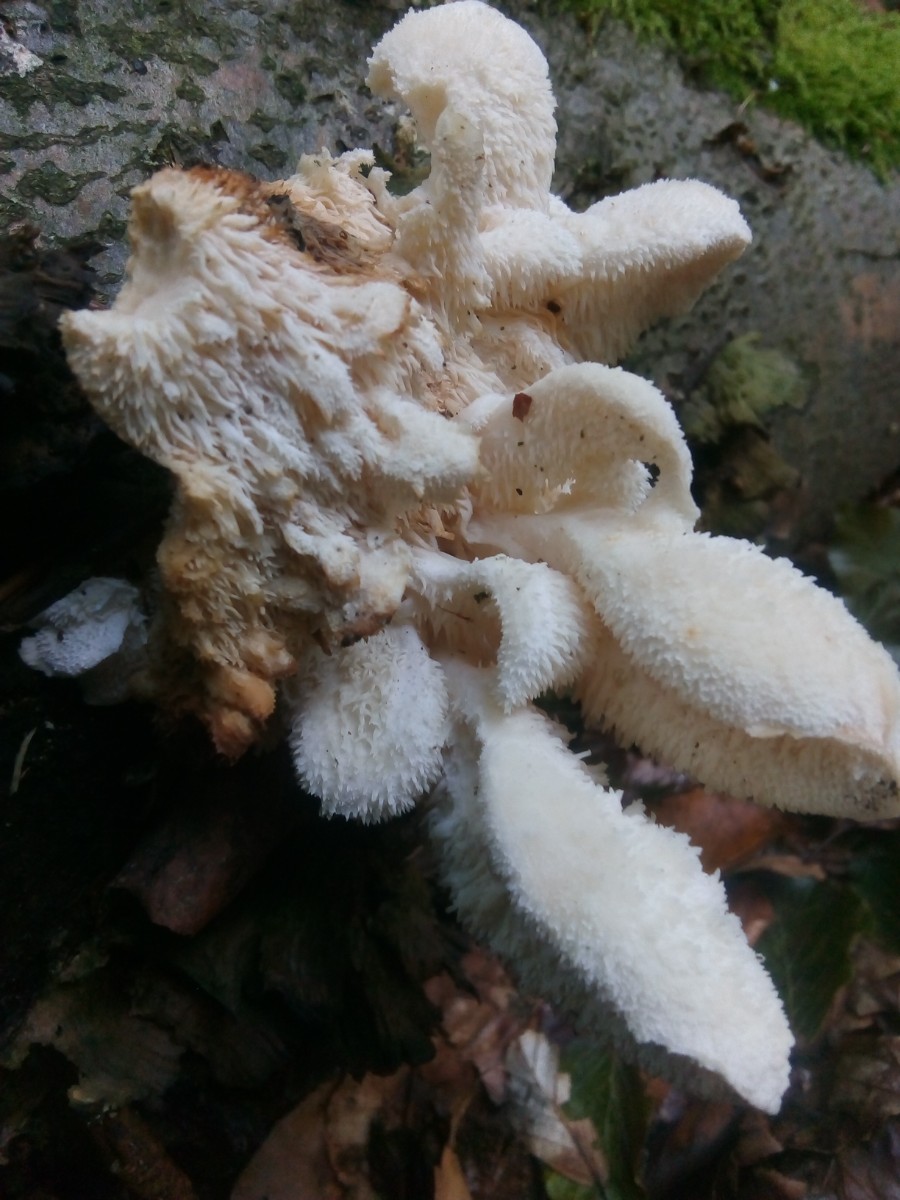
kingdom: Fungi
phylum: Basidiomycota
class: Agaricomycetes
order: Russulales
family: Hericiaceae
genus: Hericium
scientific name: Hericium cirrhatum
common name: børstepigsvamp
